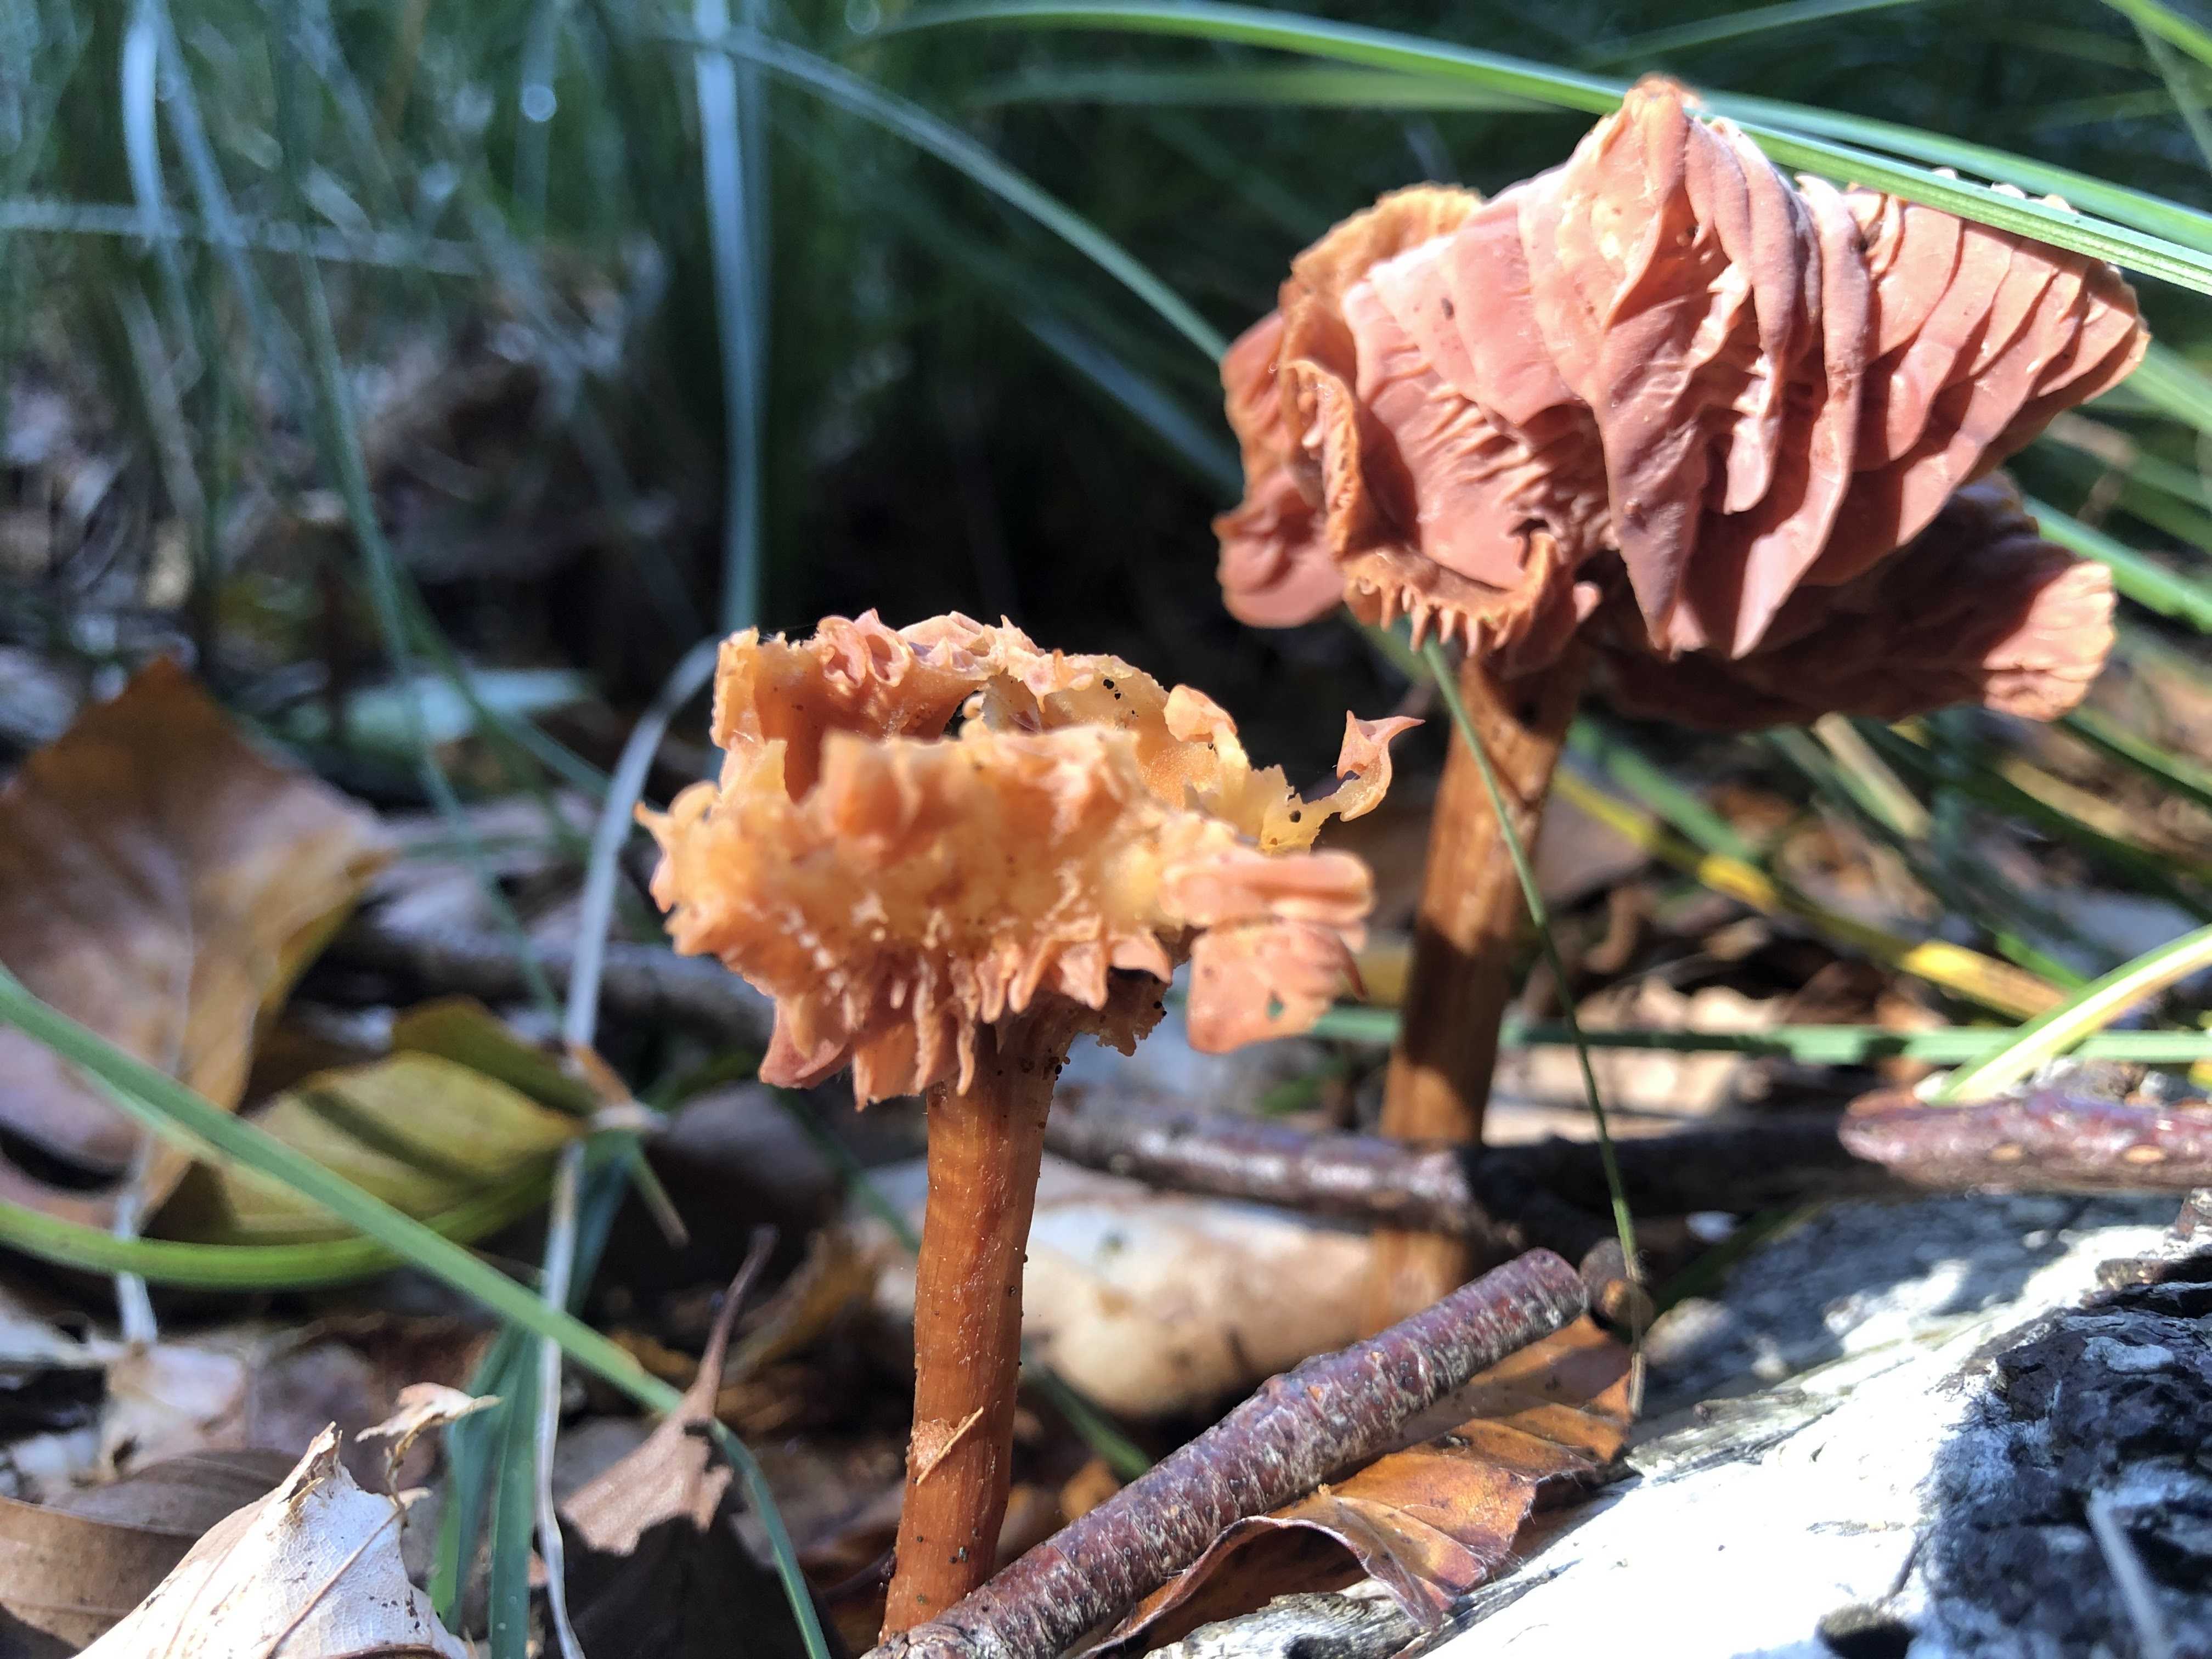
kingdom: Fungi
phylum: Basidiomycota
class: Agaricomycetes
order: Agaricales
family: Hydnangiaceae
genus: Laccaria
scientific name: Laccaria
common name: ametysthat
